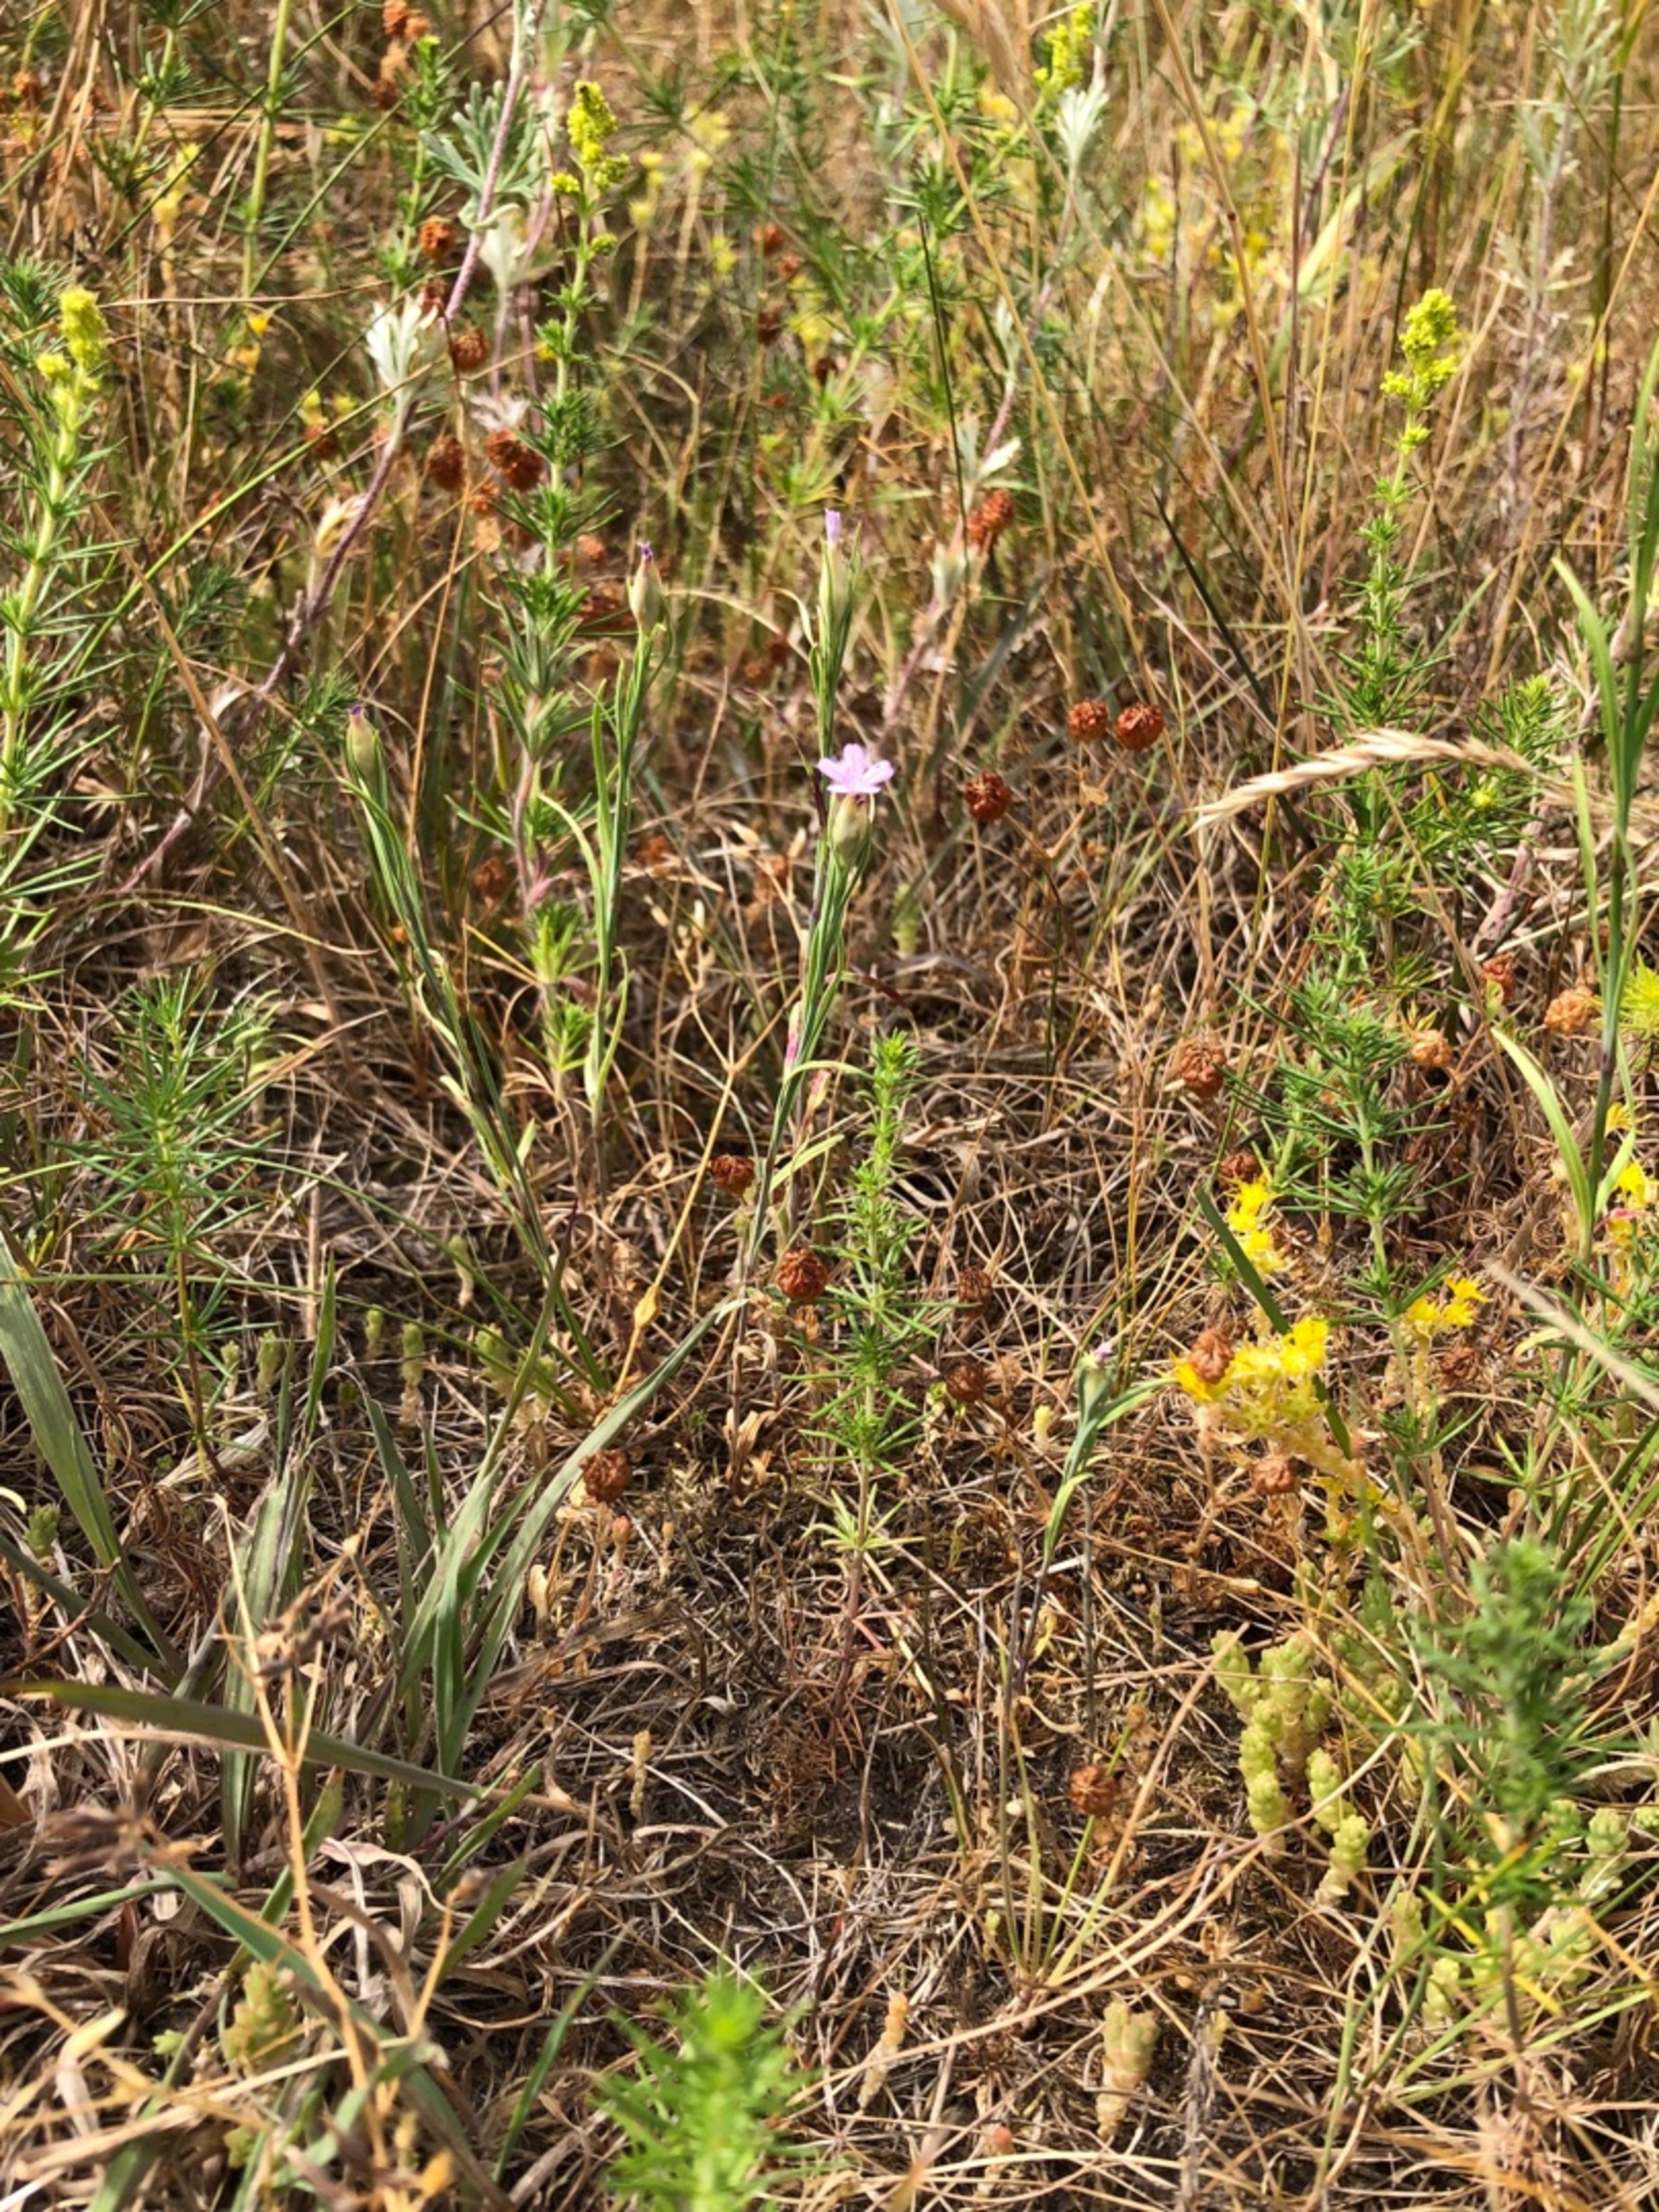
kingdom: Plantae
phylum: Tracheophyta
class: Magnoliopsida
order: Caryophyllales
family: Caryophyllaceae
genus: Petrorhagia
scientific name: Petrorhagia prolifera
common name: Knopnellike
